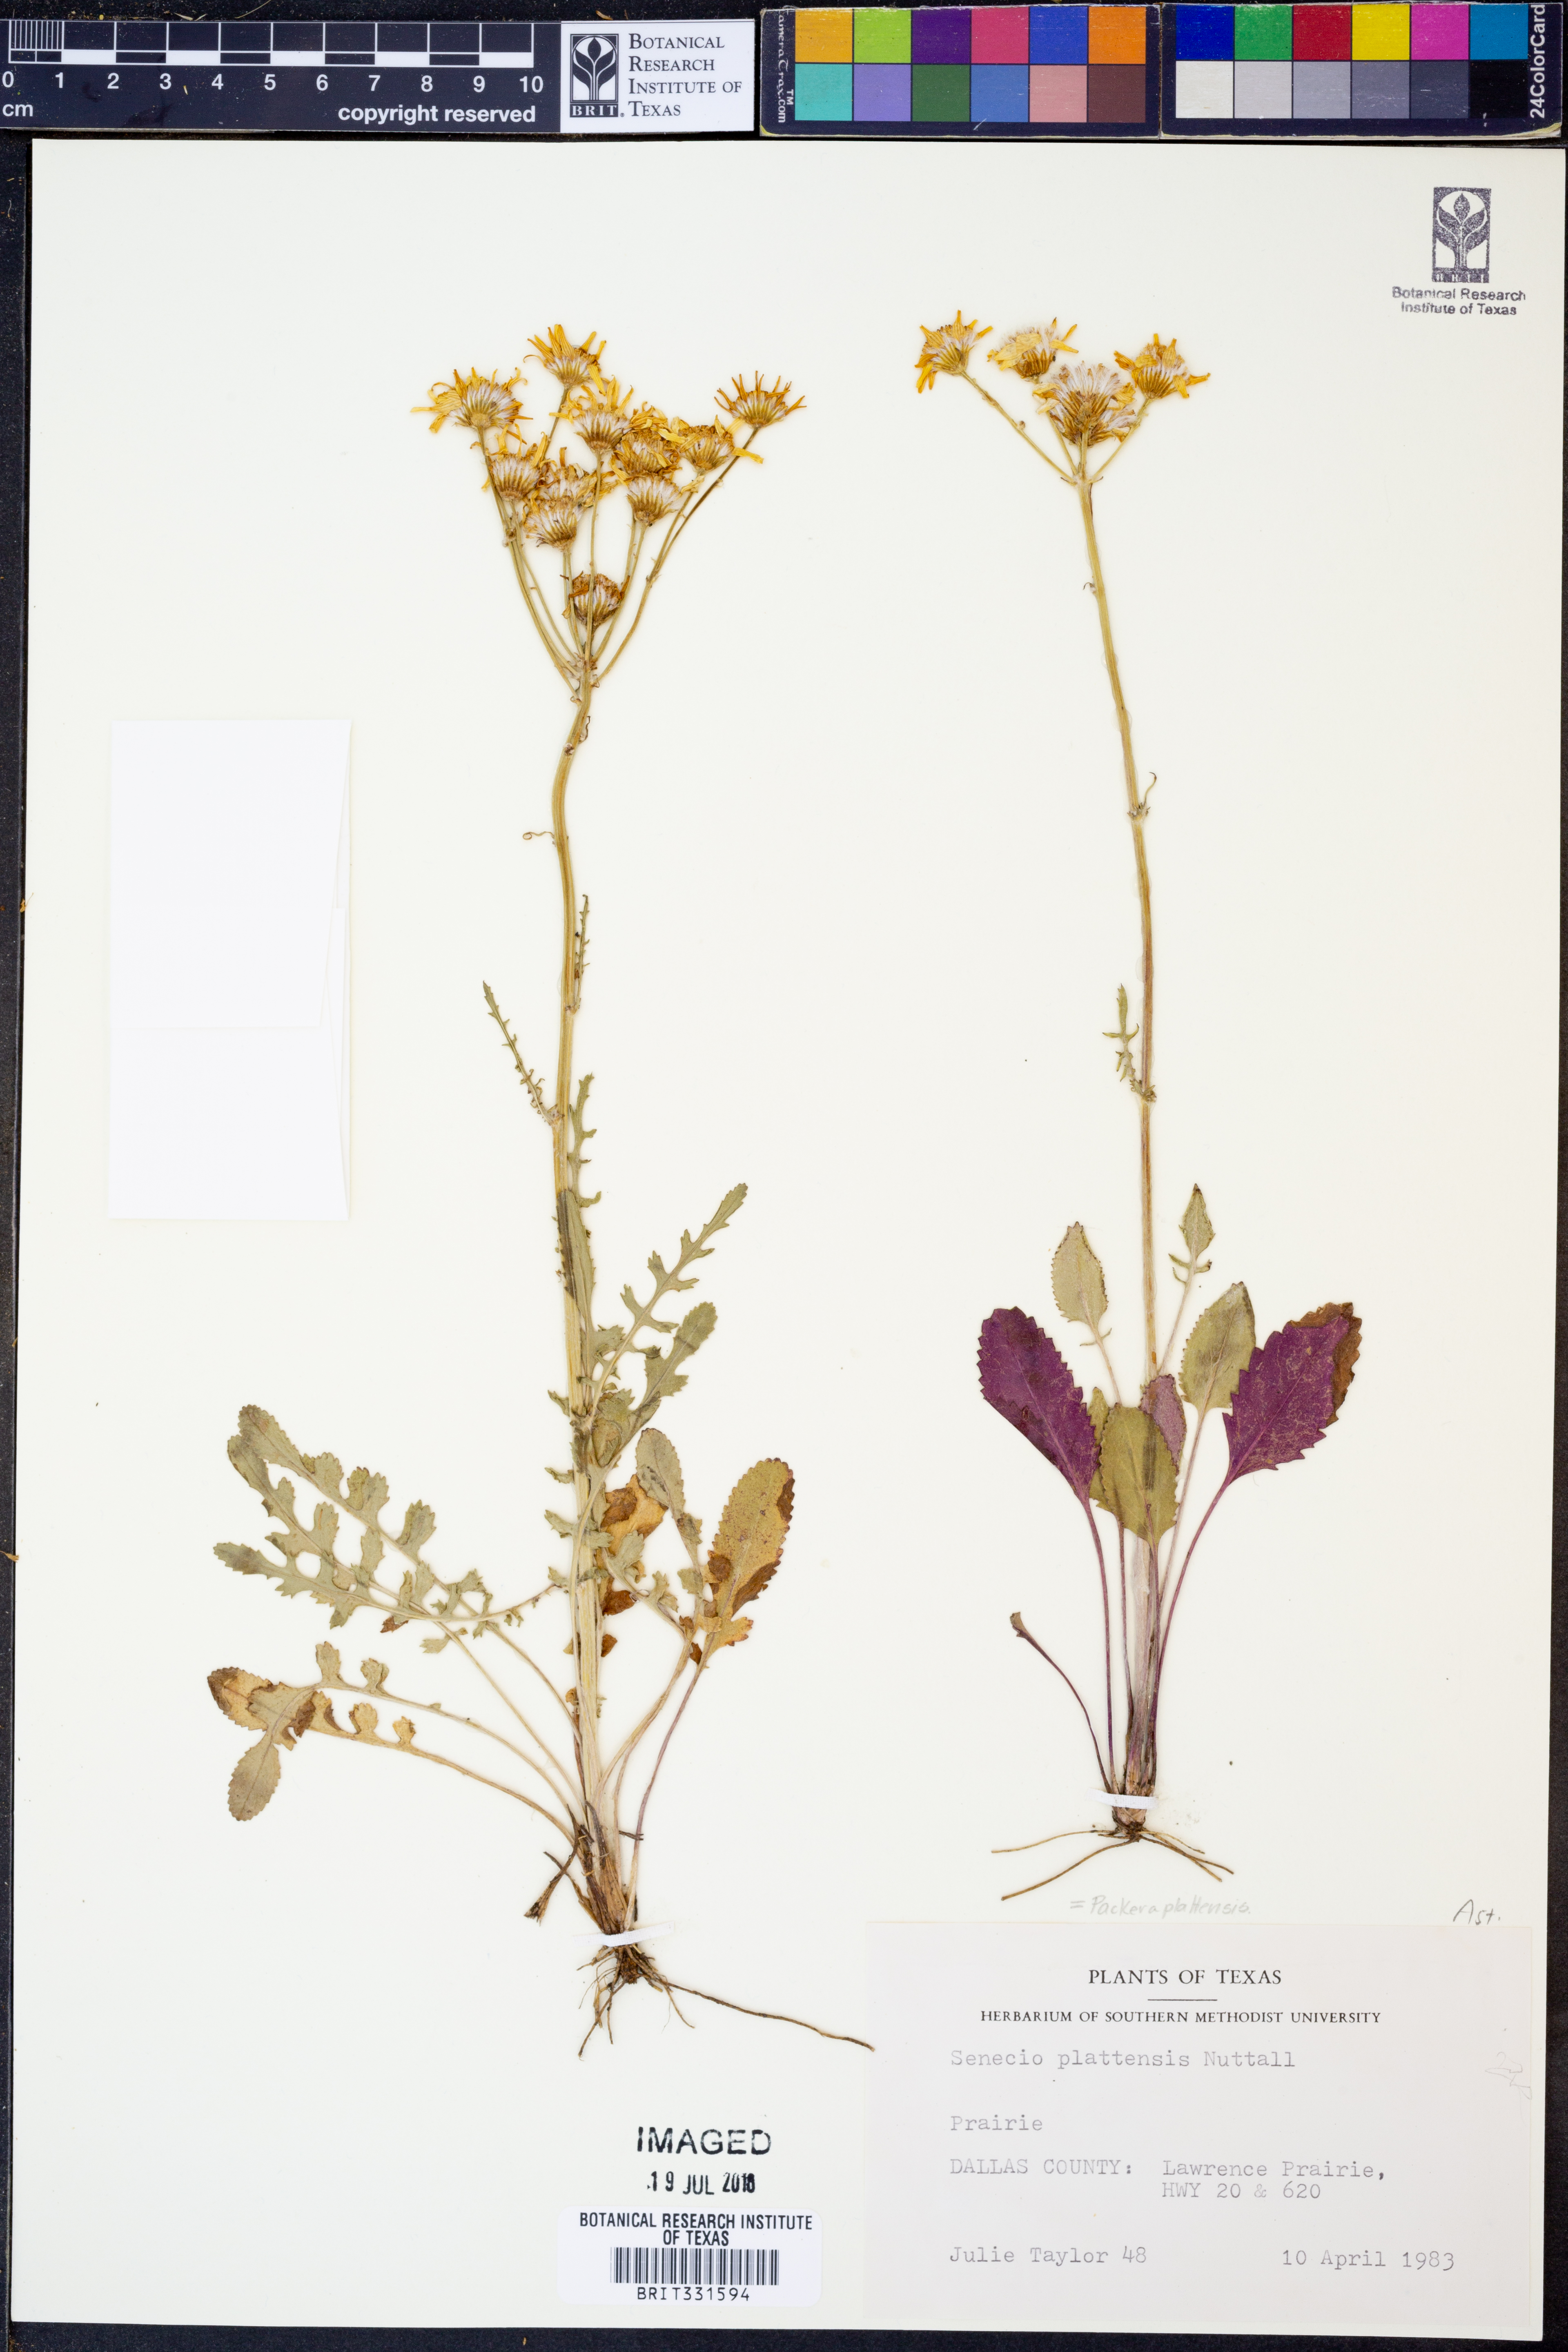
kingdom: Plantae
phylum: Tracheophyta
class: Magnoliopsida
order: Asterales
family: Asteraceae
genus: Packera
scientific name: Packera plattensis
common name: Prairie groundsel
